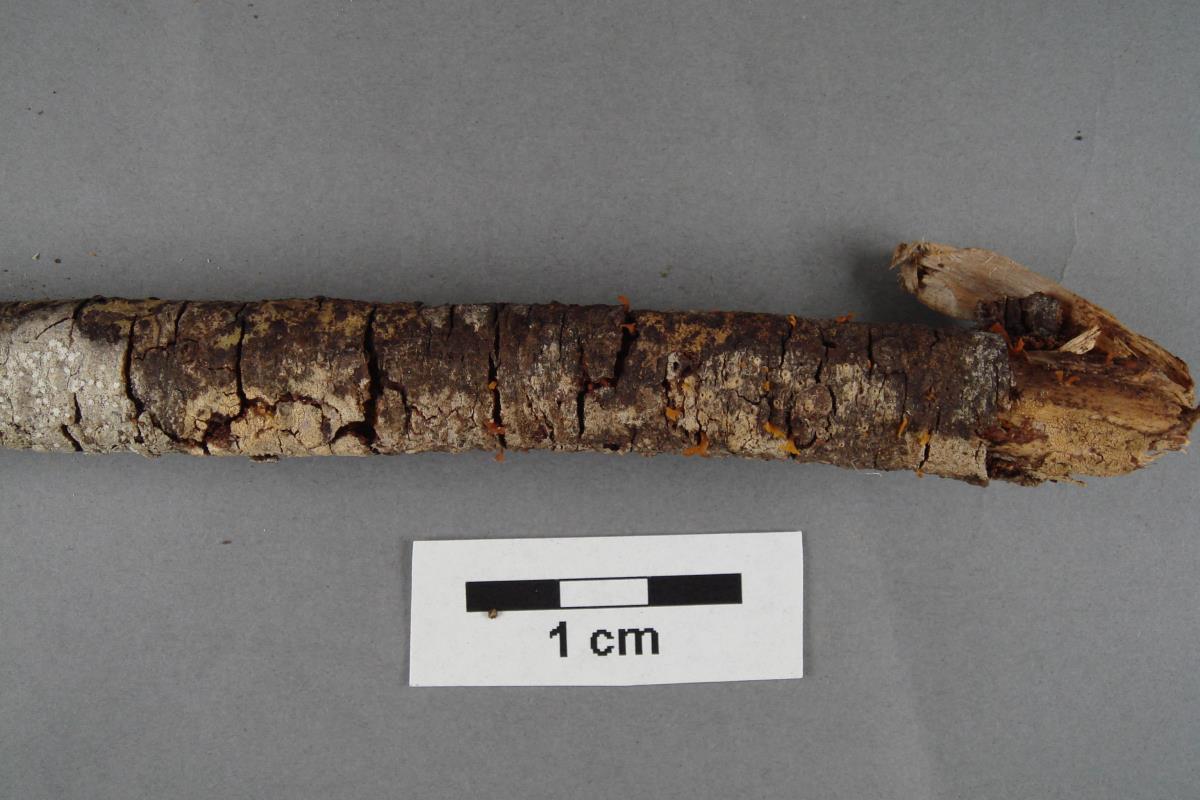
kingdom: Fungi
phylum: Basidiomycota
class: Dacrymycetes
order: Dacrymycetales
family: Dacrymycetaceae
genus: Calocera
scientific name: Calocera fusca
